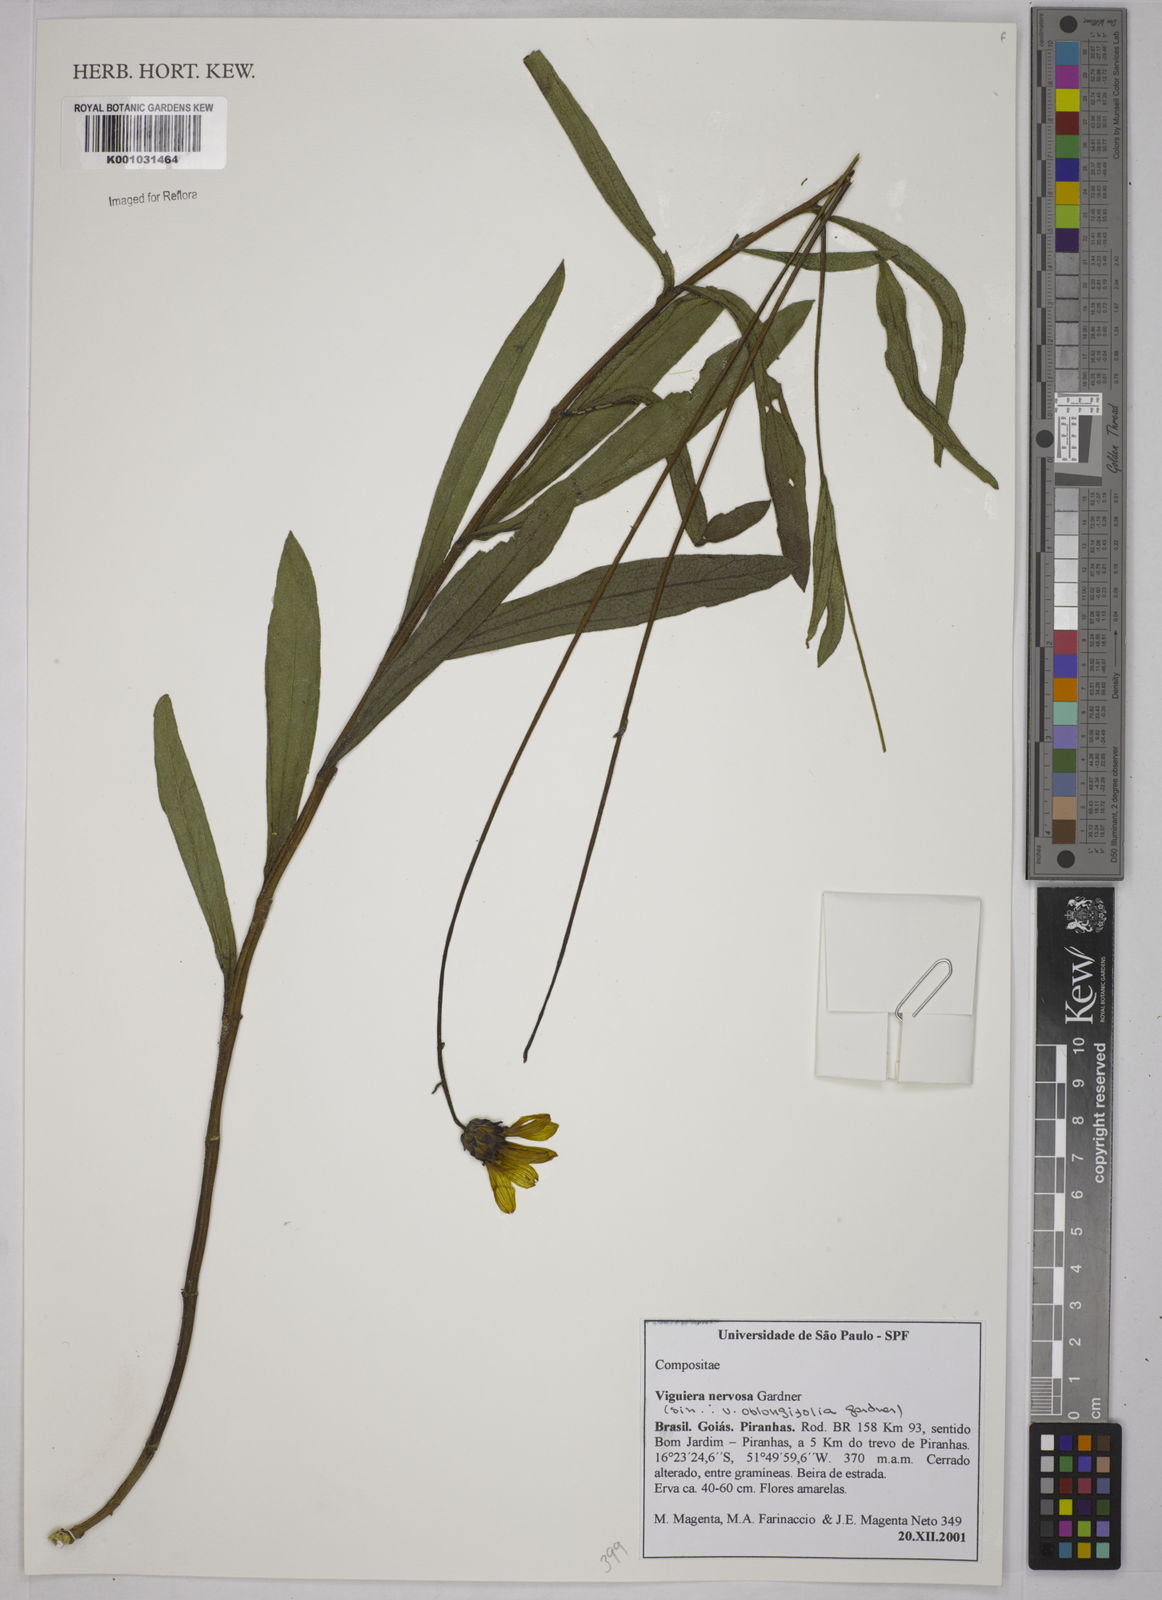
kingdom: Plantae
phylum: Tracheophyta
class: Magnoliopsida
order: Asterales
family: Asteraceae
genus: Aldama
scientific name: Aldama nervosa
